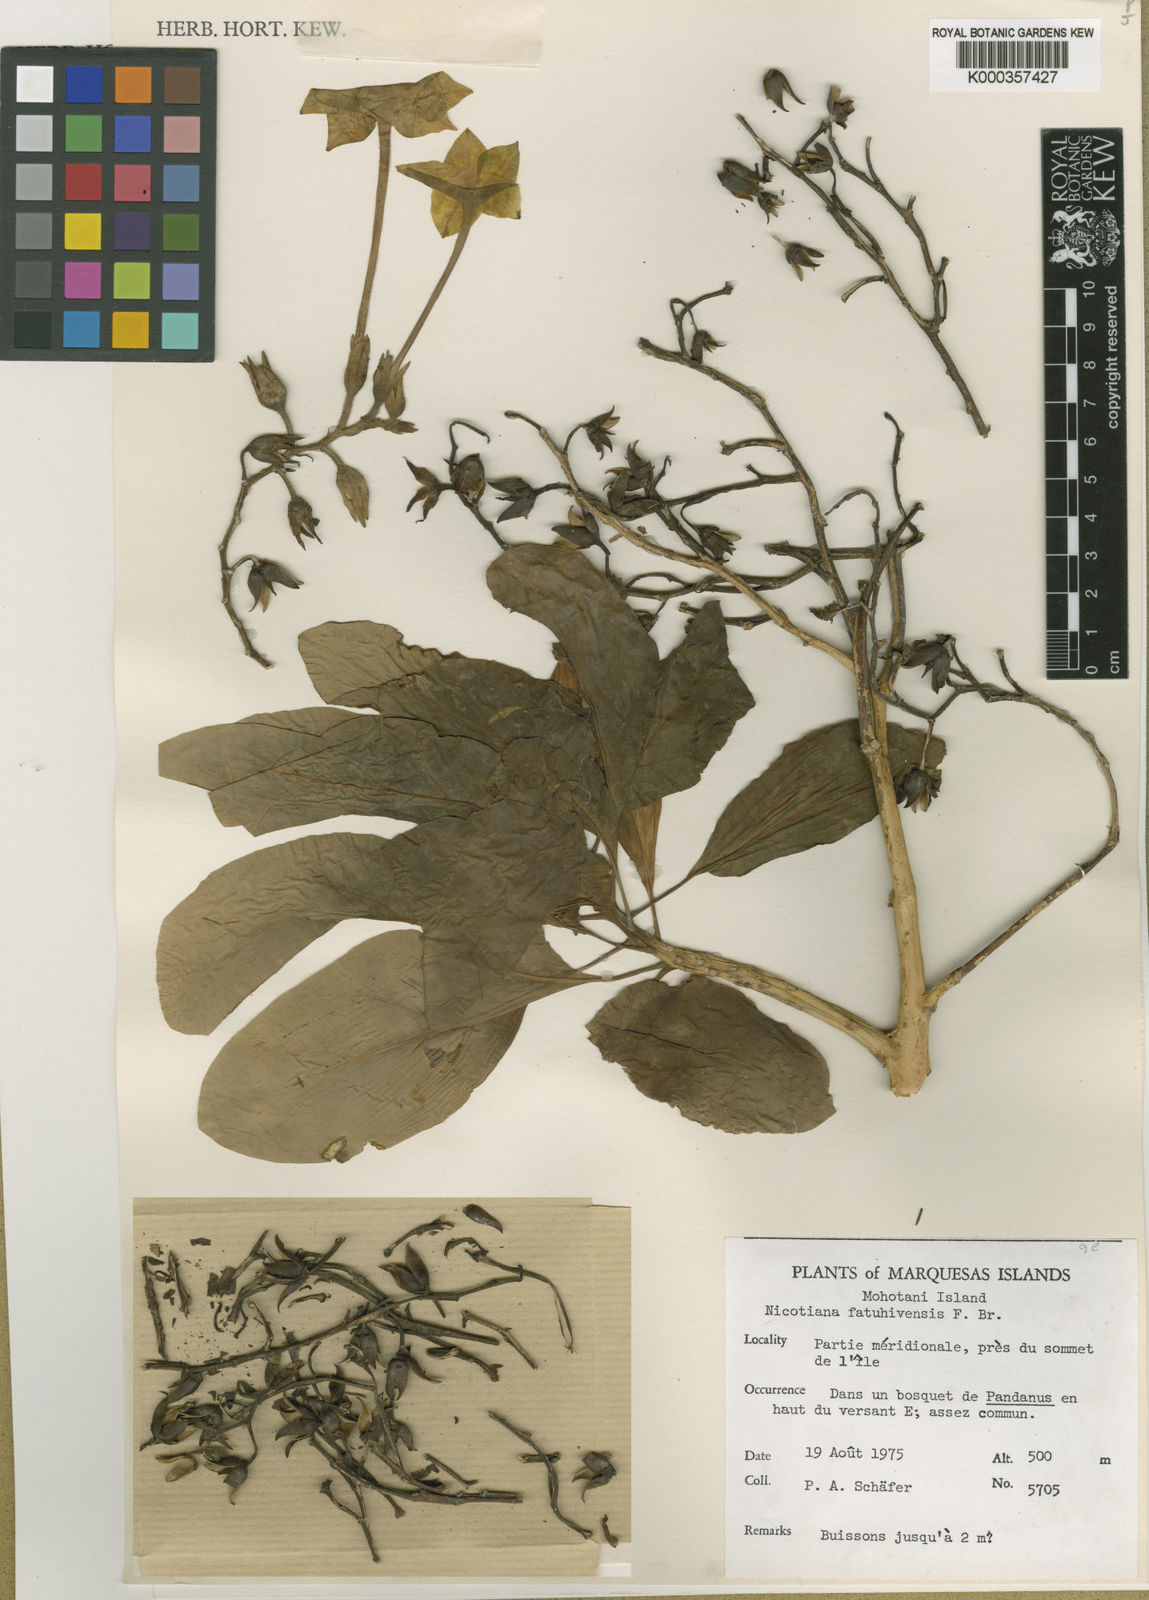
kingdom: Plantae
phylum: Tracheophyta
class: Magnoliopsida
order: Solanales
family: Solanaceae
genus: Nicotiana
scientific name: Nicotiana fatuhivensis
